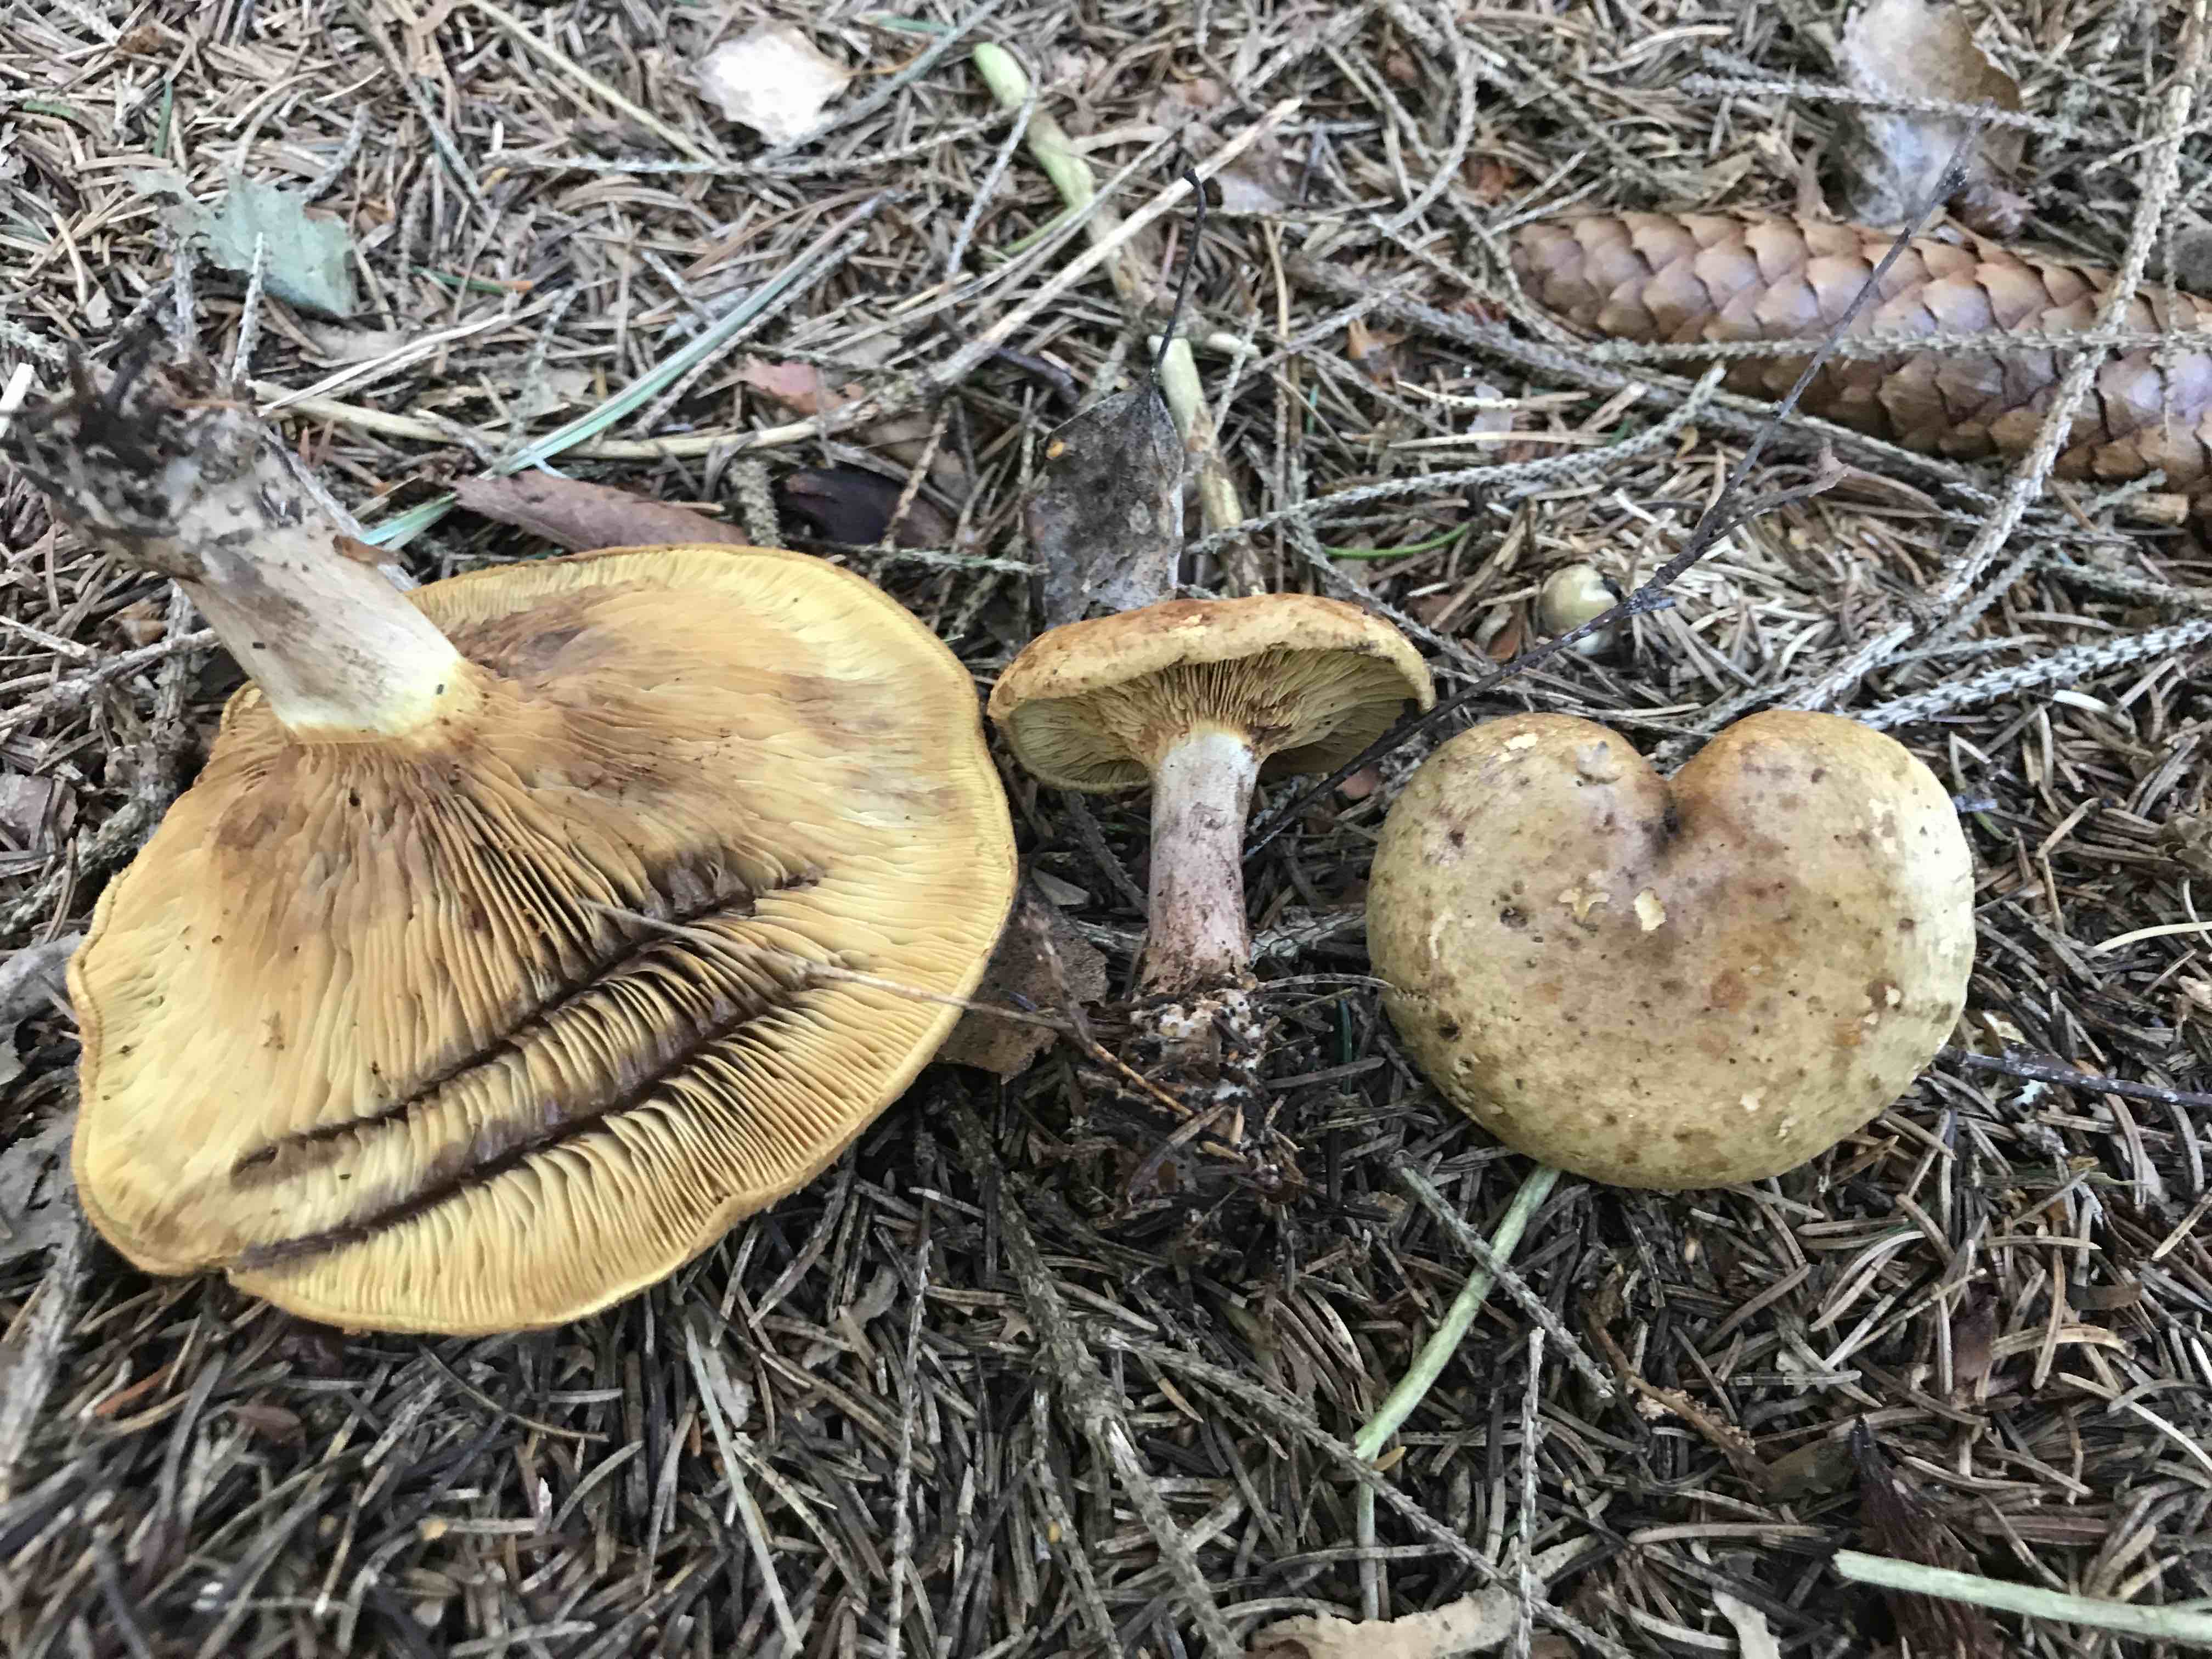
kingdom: Fungi
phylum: Basidiomycota
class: Agaricomycetes
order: Boletales
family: Paxillaceae
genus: Paxillus
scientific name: Paxillus involutus
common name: almindelig netbladhat
